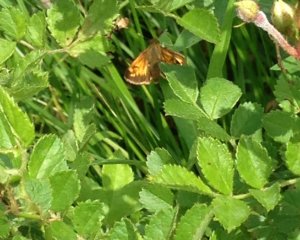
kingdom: Animalia
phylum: Arthropoda
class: Insecta
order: Lepidoptera
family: Hesperiidae
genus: Lon
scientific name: Lon hobomok
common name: Hobomok Skipper
